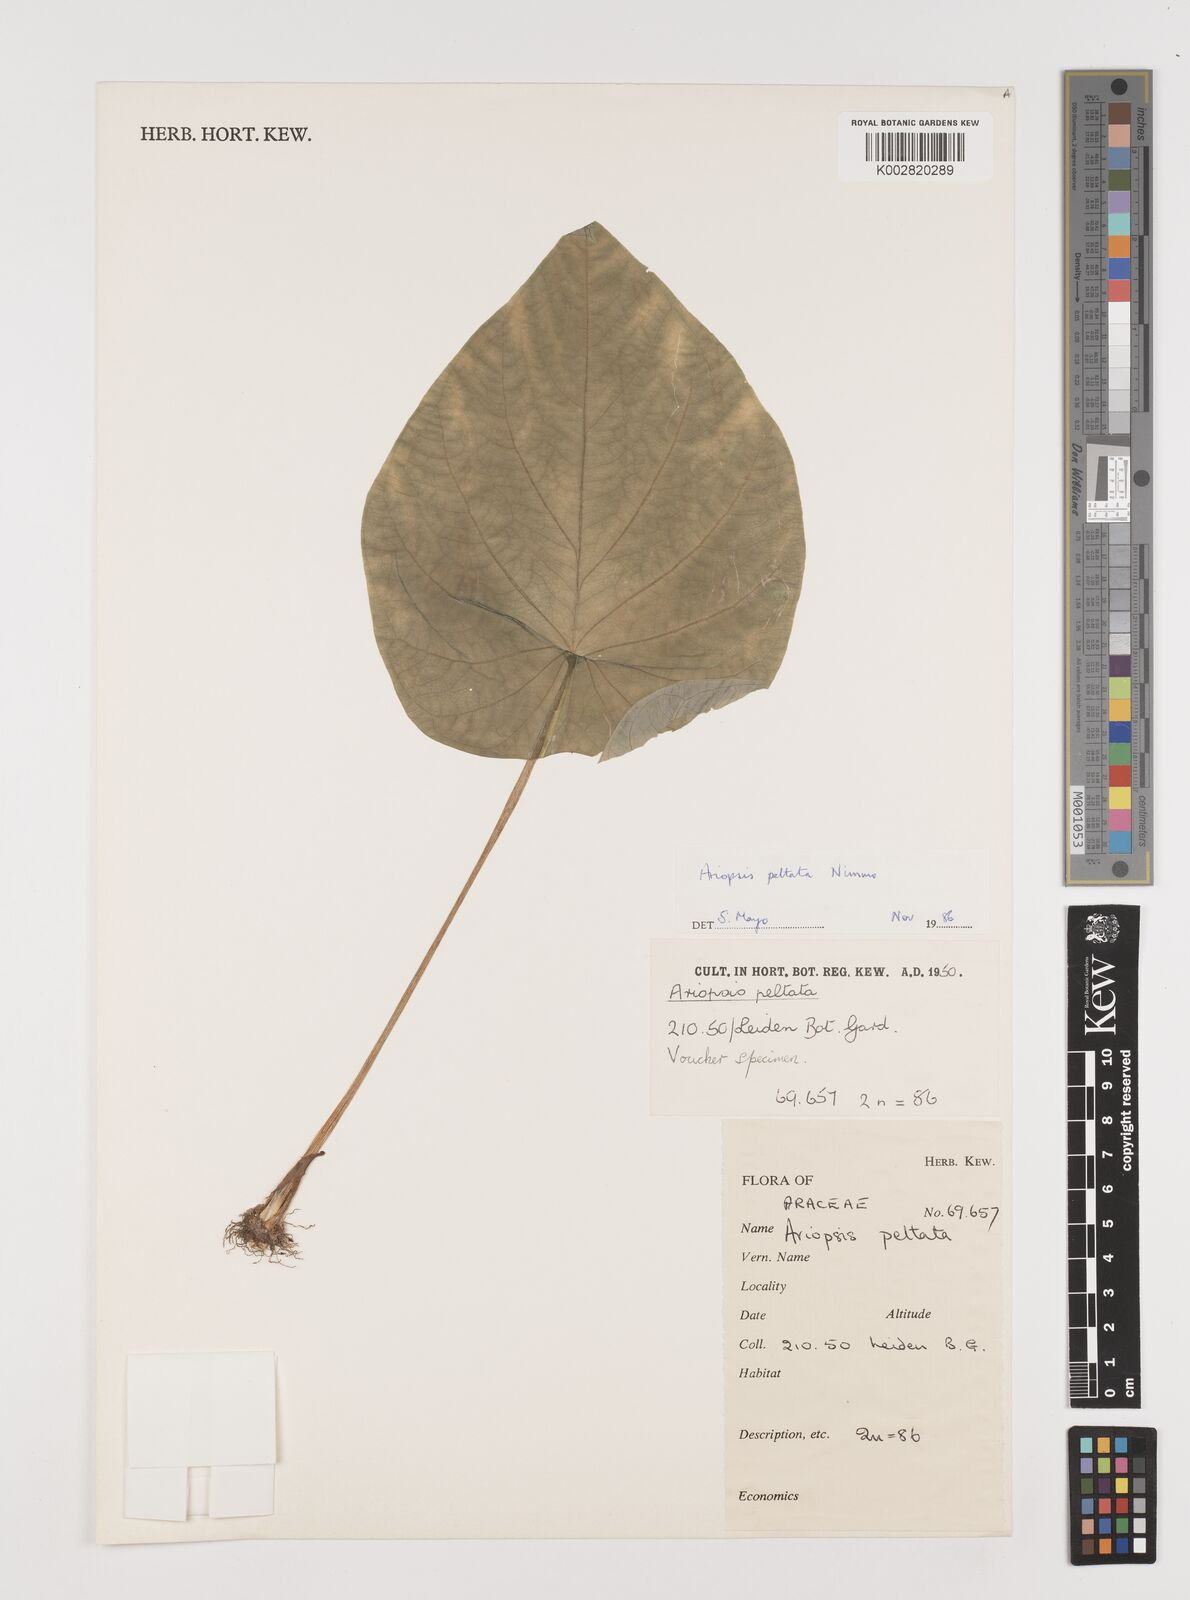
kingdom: Plantae
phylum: Tracheophyta
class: Liliopsida
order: Alismatales
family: Araceae
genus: Ariopsis
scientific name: Ariopsis peltata
